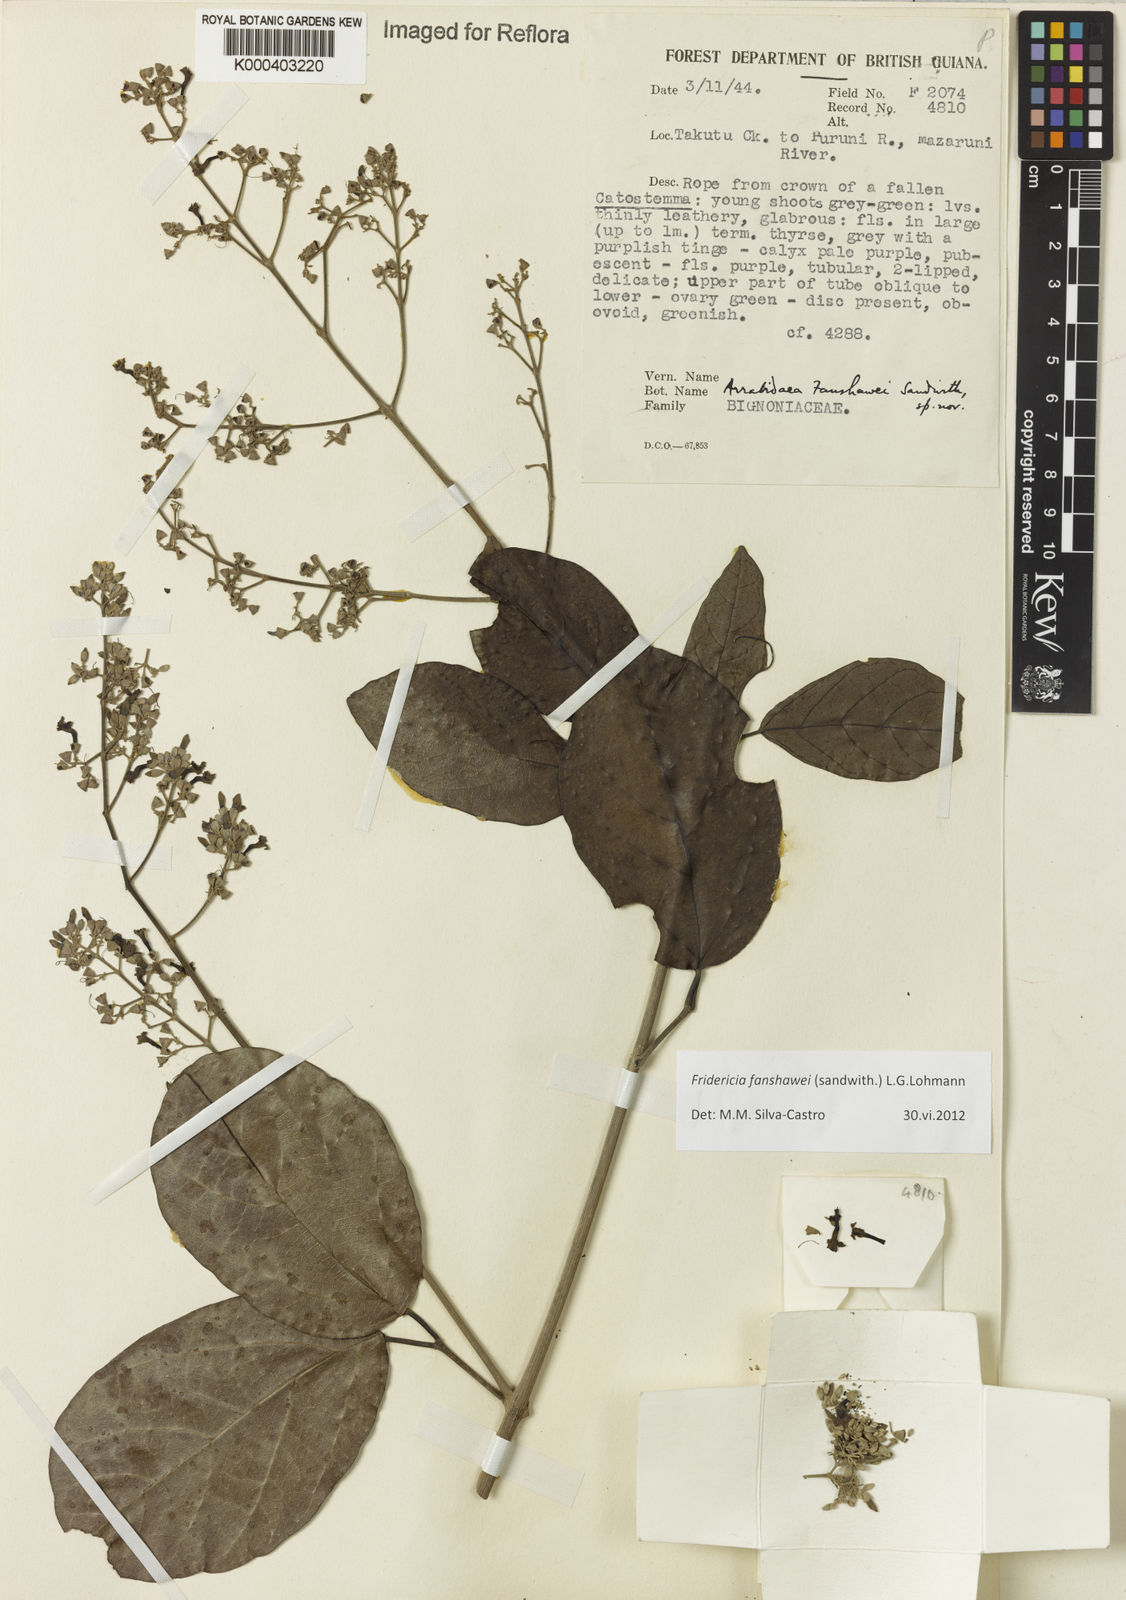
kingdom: Plantae
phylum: Tracheophyta
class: Magnoliopsida
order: Lamiales
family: Bignoniaceae
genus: Fridericia
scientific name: Fridericia fanshawei
